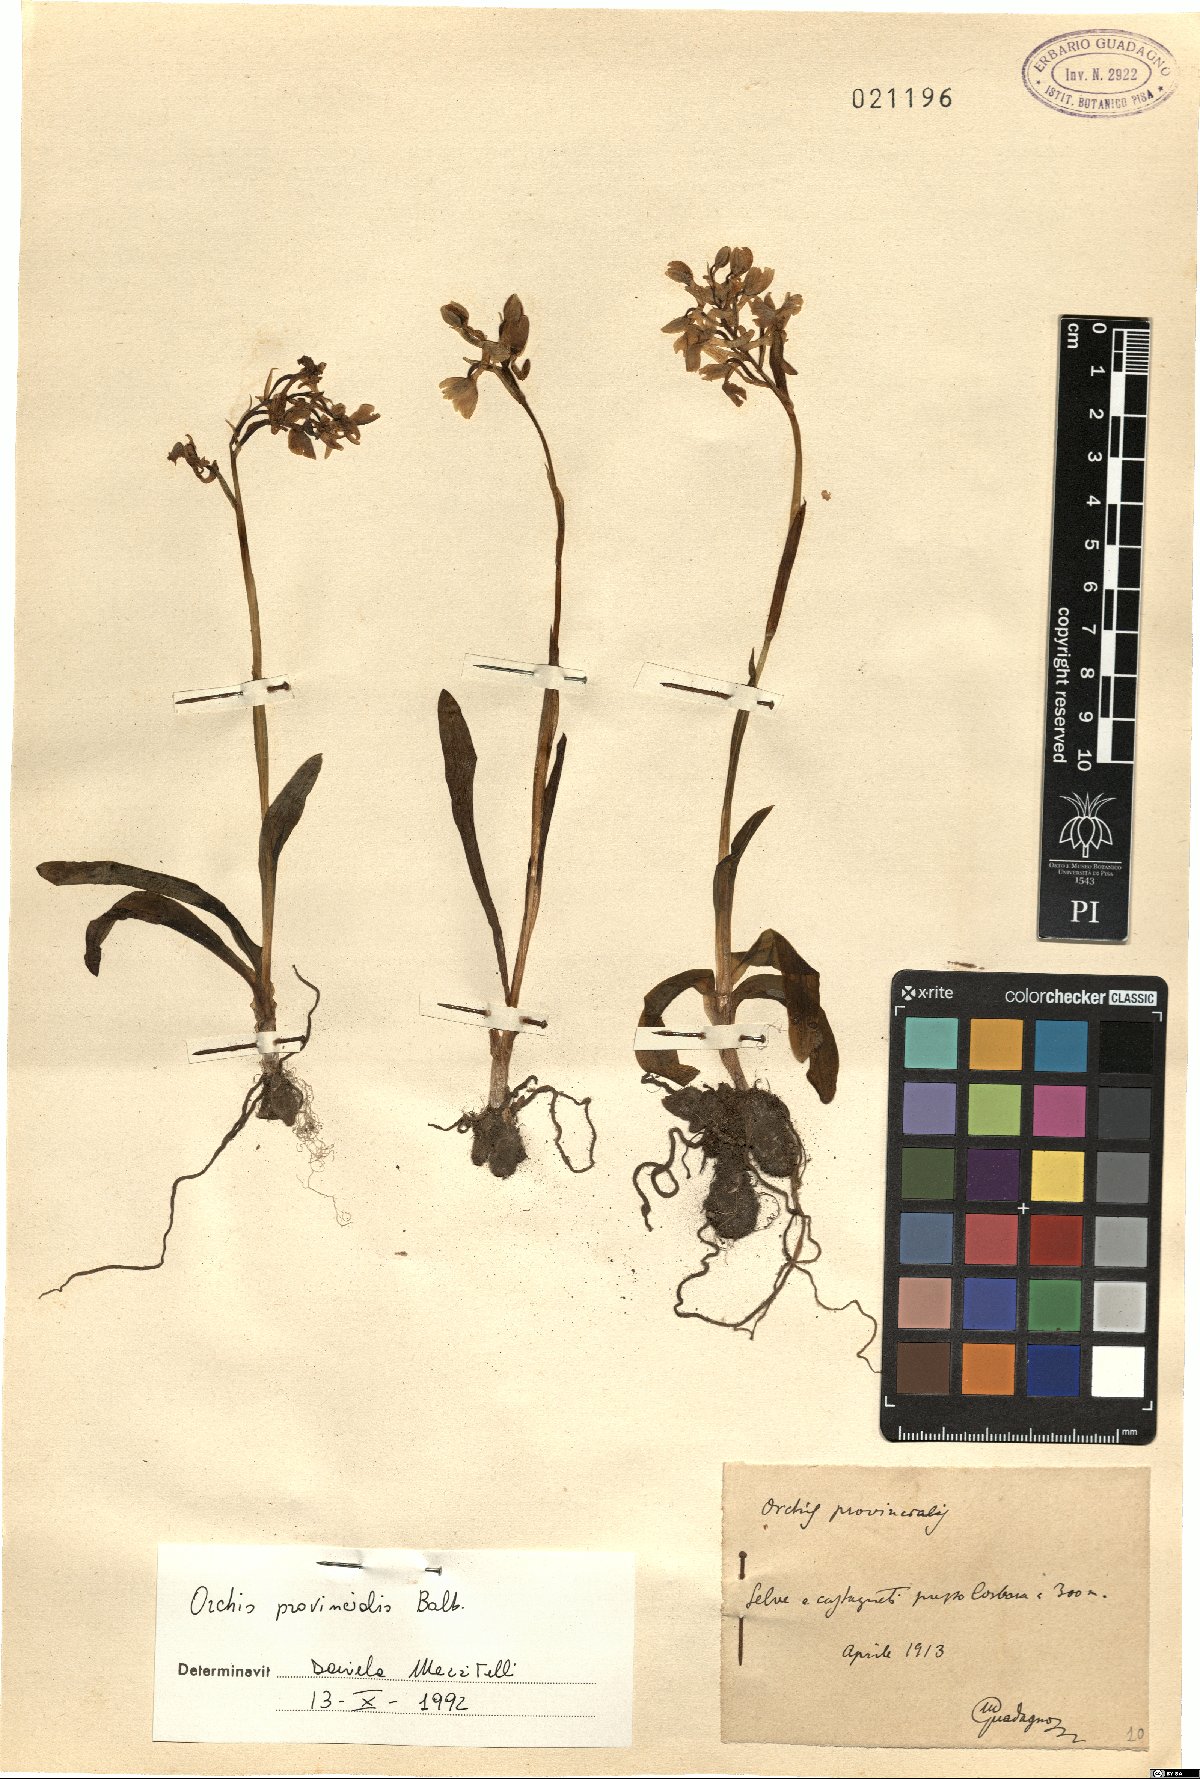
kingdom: Plantae
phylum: Tracheophyta
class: Liliopsida
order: Asparagales
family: Orchidaceae
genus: Orchis
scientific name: Orchis provincialis
